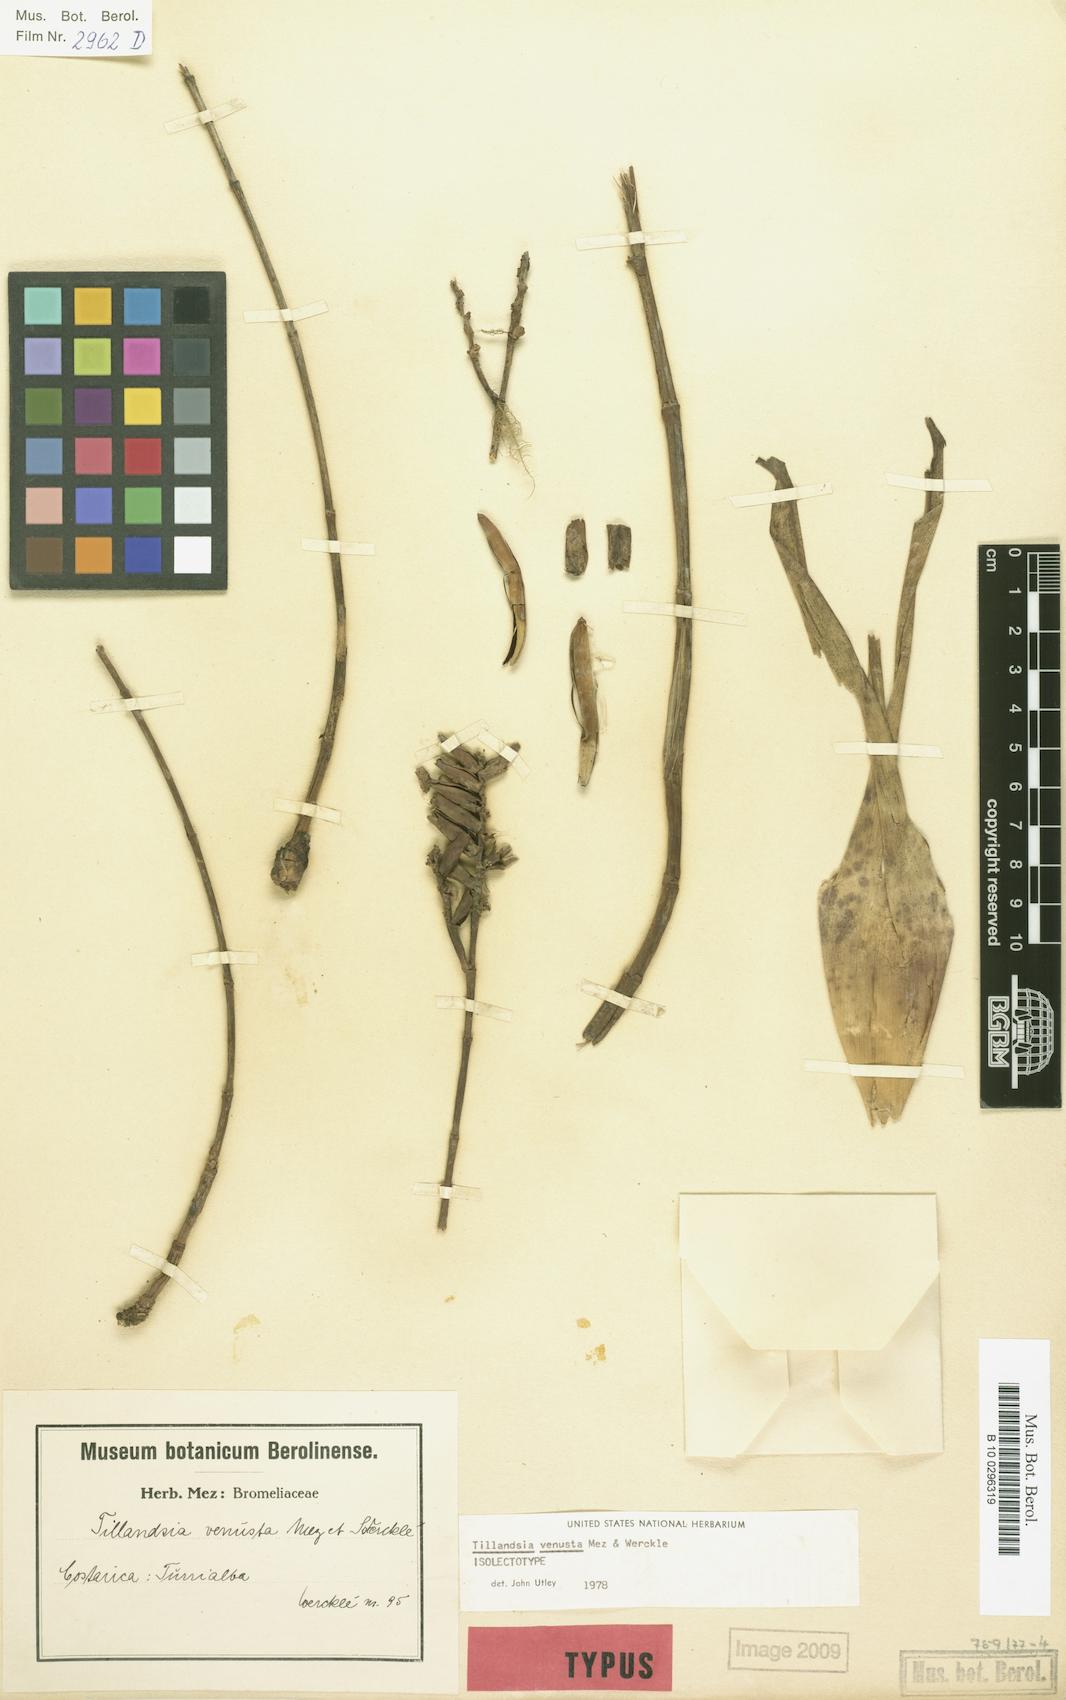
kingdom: Plantae
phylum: Tracheophyta
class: Liliopsida
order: Poales
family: Bromeliaceae
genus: Racinaea
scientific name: Racinaea venusta
